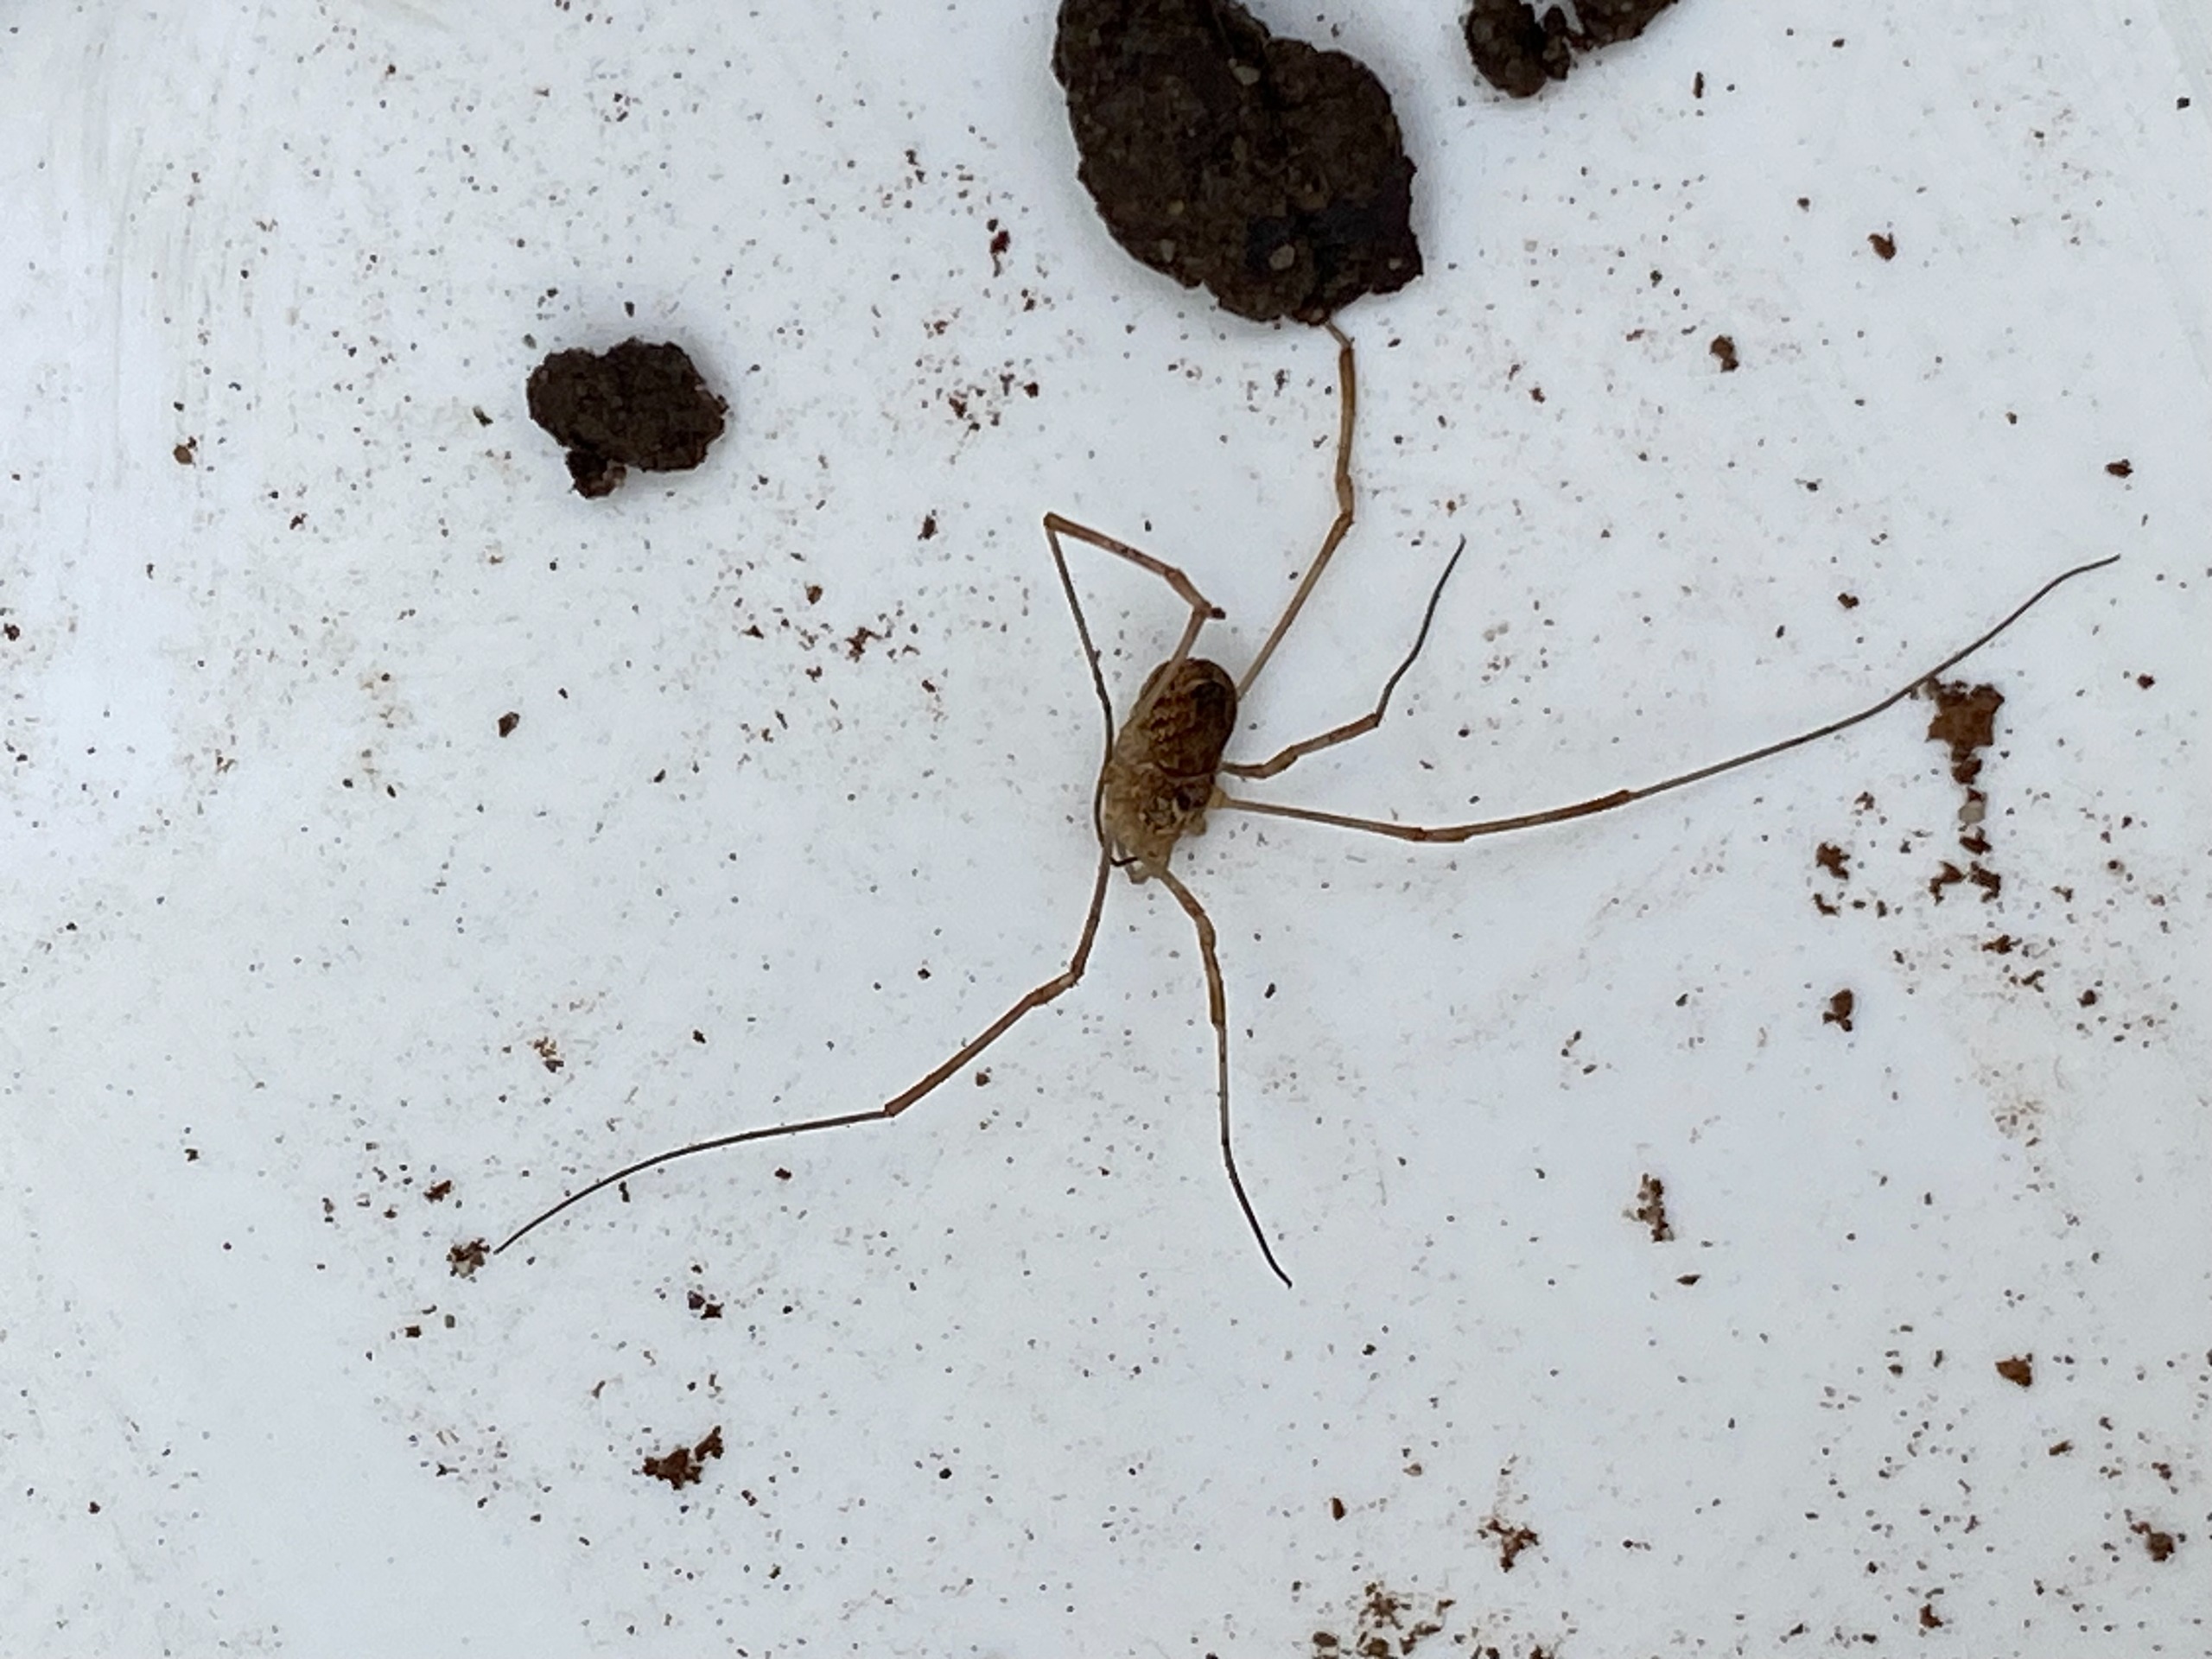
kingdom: Animalia
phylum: Arthropoda
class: Arachnida
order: Opiliones
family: Phalangiidae
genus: Platybunus
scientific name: Platybunus
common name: Forårsmejere
